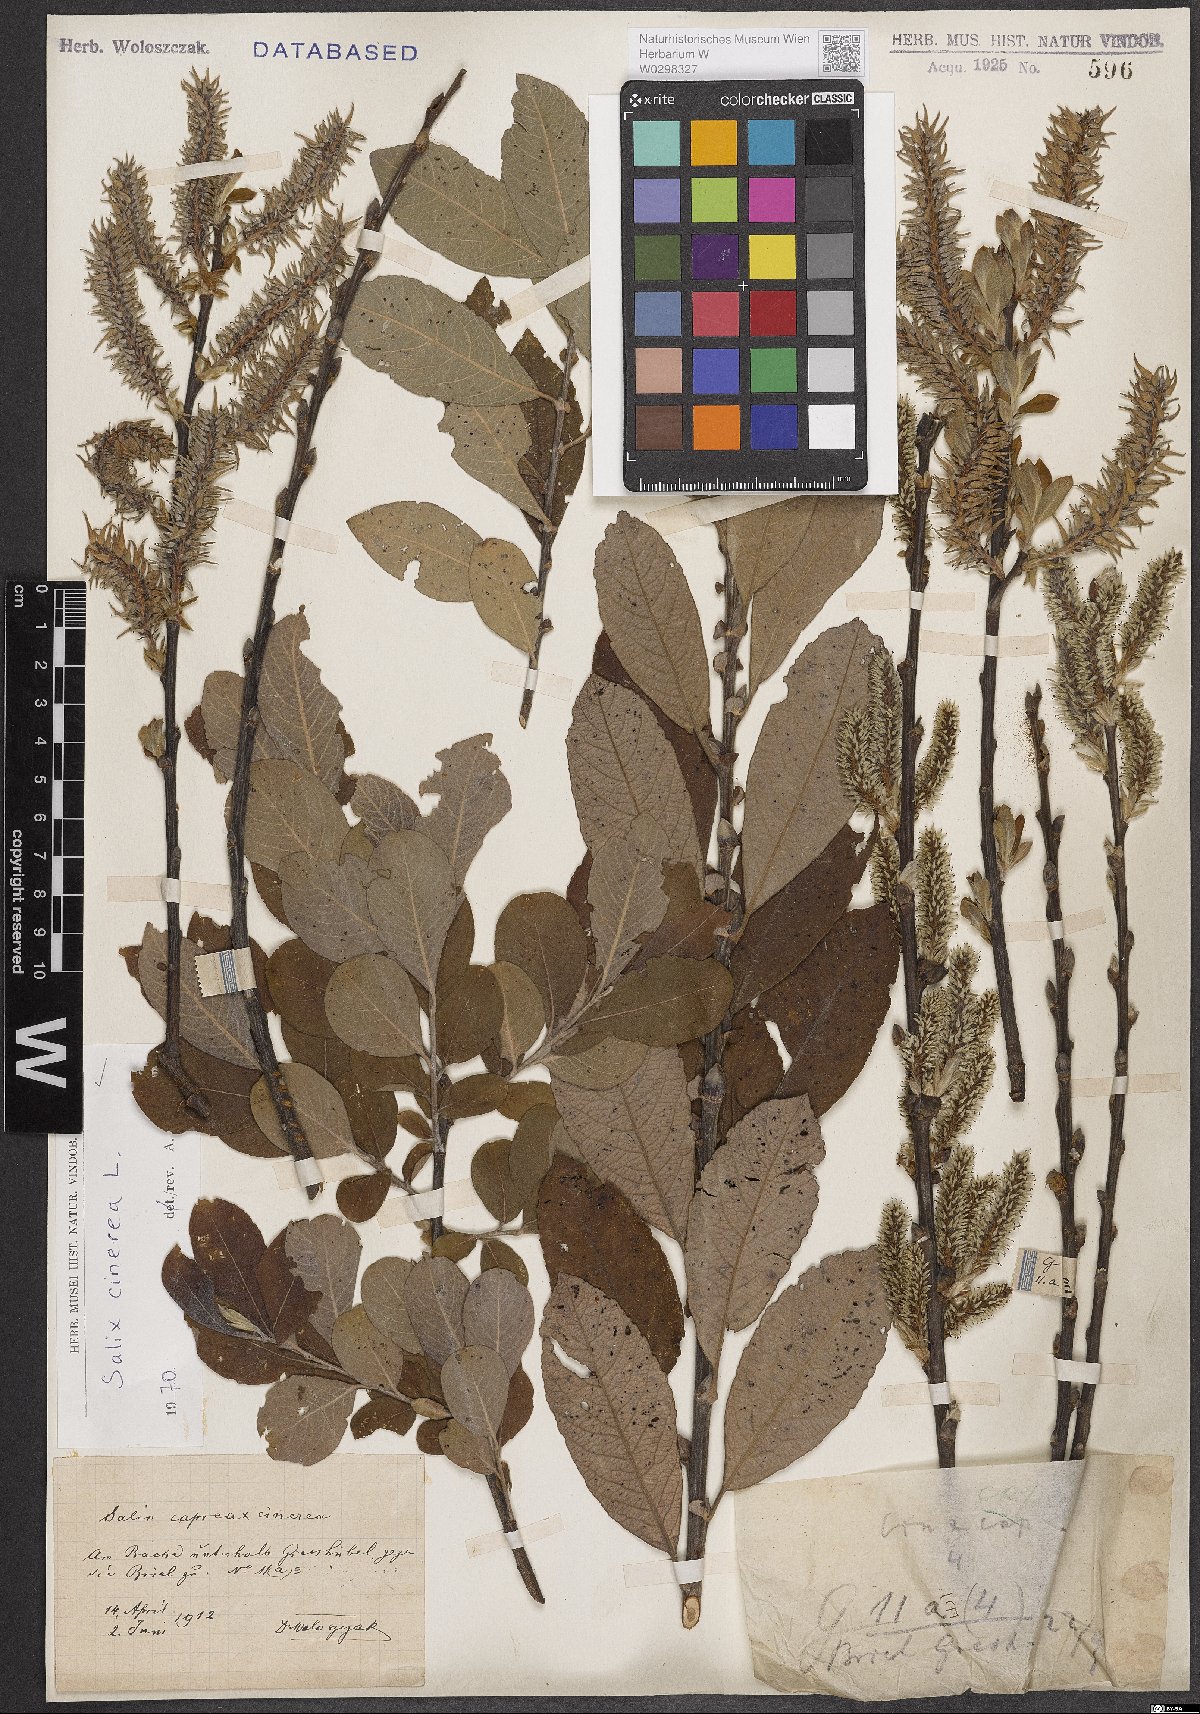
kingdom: Plantae
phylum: Tracheophyta
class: Magnoliopsida
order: Malpighiales
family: Salicaceae
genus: Salix
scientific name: Salix cinerea
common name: Common sallow
